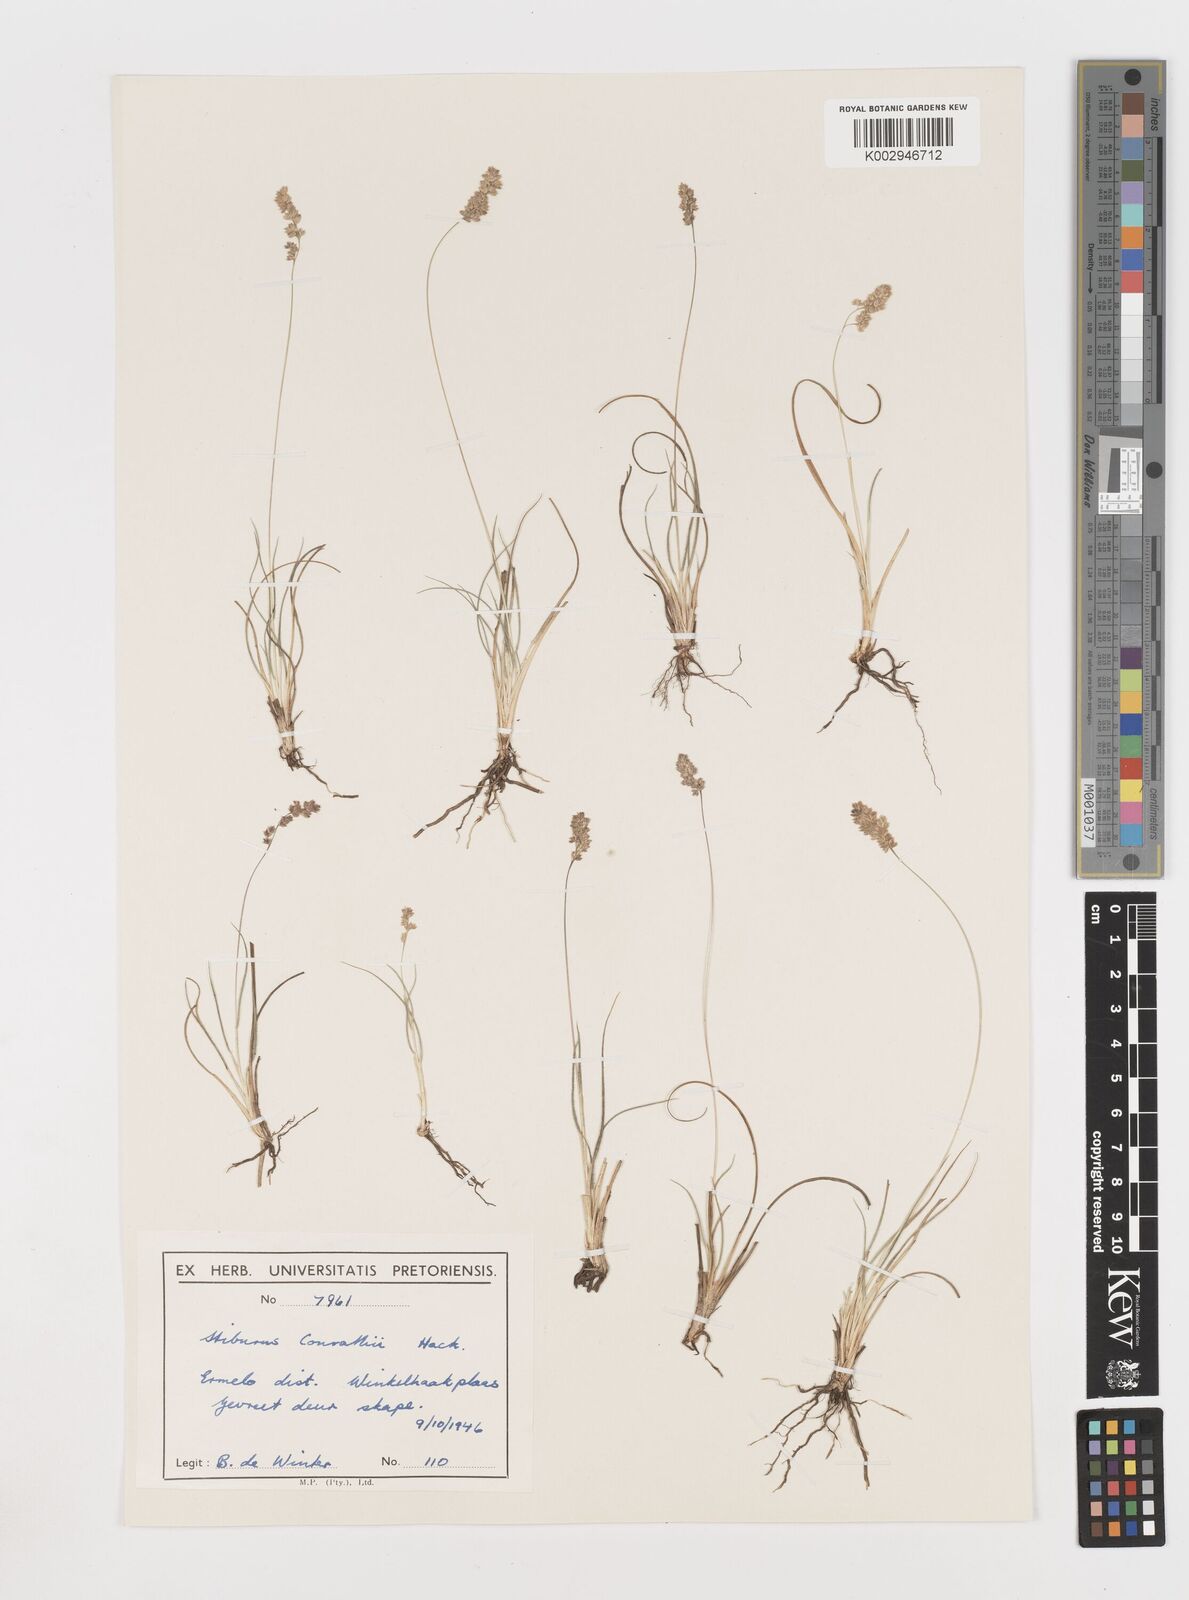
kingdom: Plantae
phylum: Tracheophyta
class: Liliopsida
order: Poales
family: Poaceae
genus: Stiburus
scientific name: Stiburus conrathii
